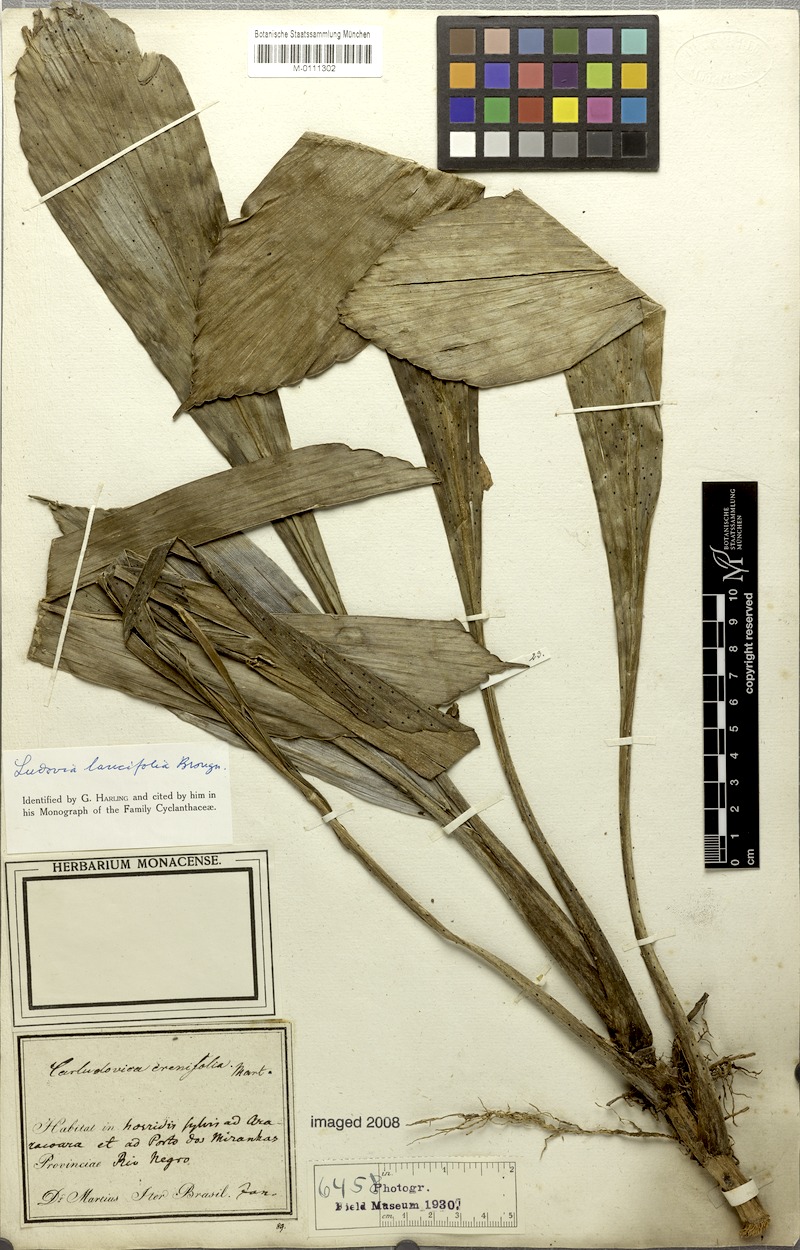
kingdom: Plantae
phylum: Tracheophyta
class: Liliopsida
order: Pandanales
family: Cyclanthaceae
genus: Ludovia
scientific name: Ludovia lancifolia
